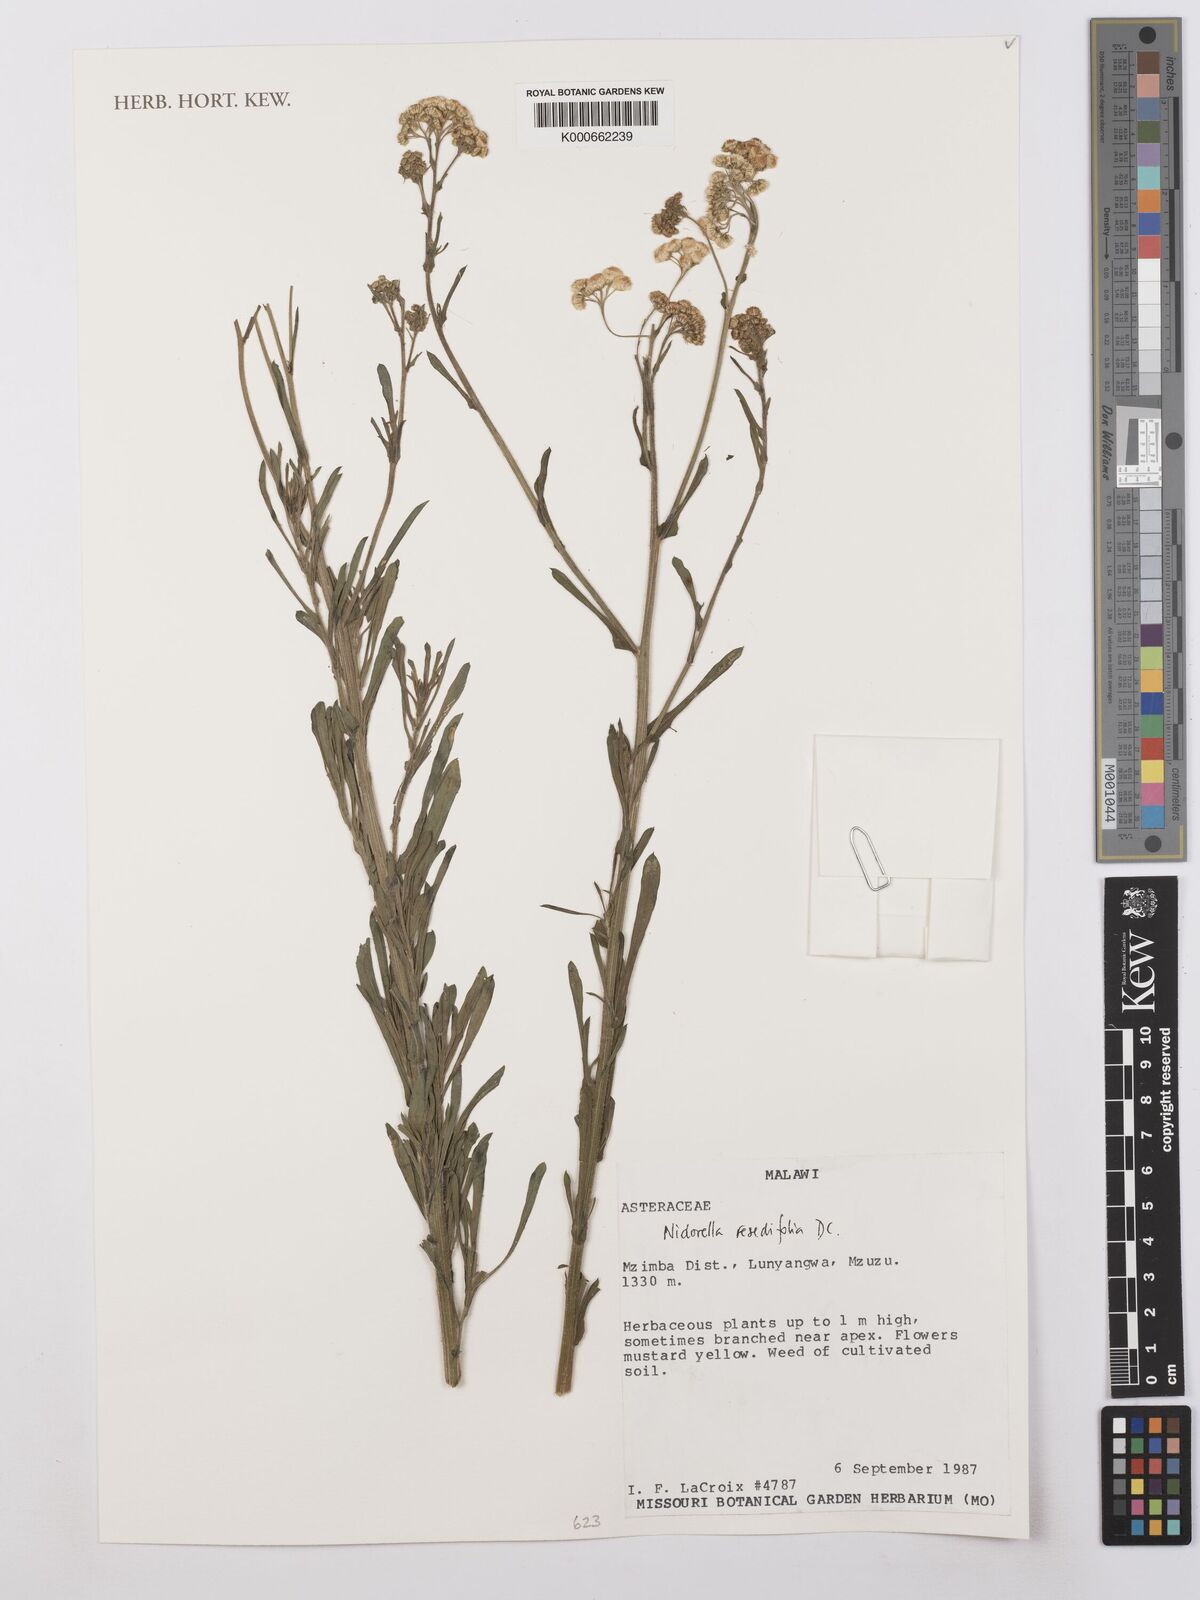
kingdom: Plantae
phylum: Tracheophyta
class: Magnoliopsida
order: Asterales
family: Asteraceae
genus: Nidorella
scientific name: Nidorella resedifolia
